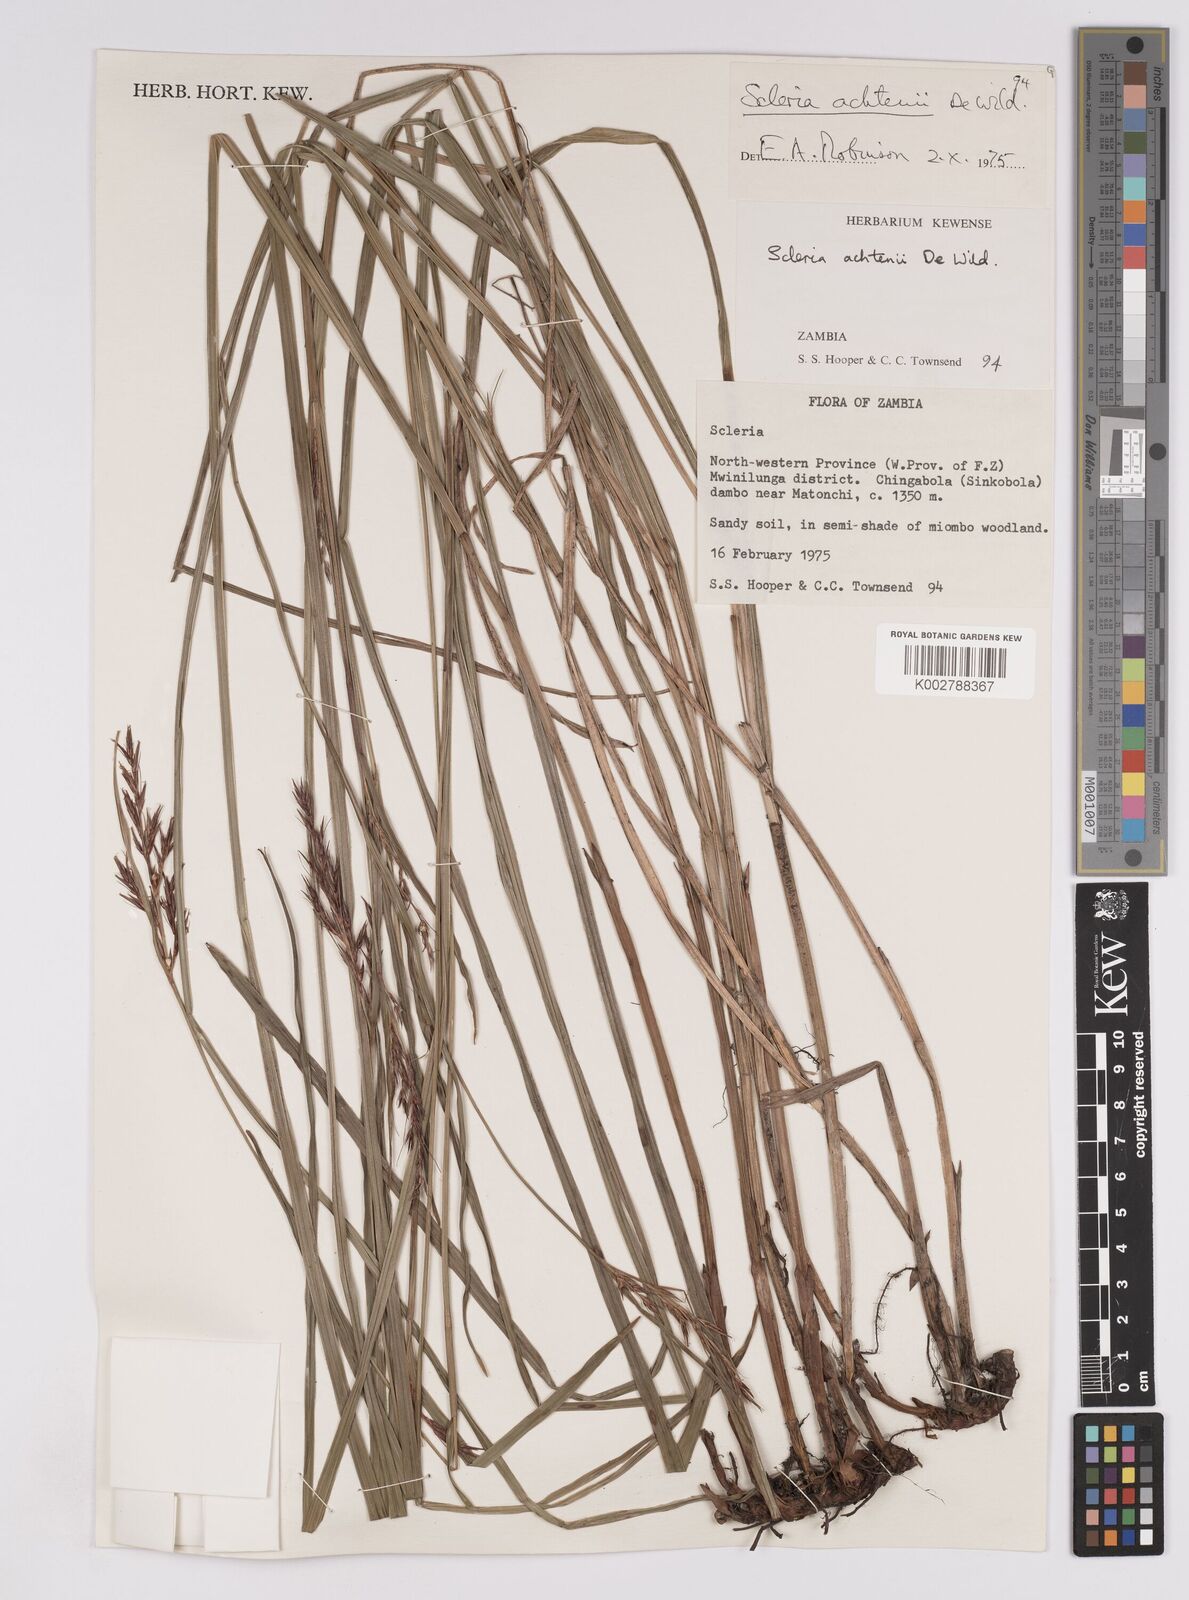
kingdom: Plantae
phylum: Tracheophyta
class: Liliopsida
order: Poales
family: Cyperaceae
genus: Scleria
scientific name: Scleria achtenii
